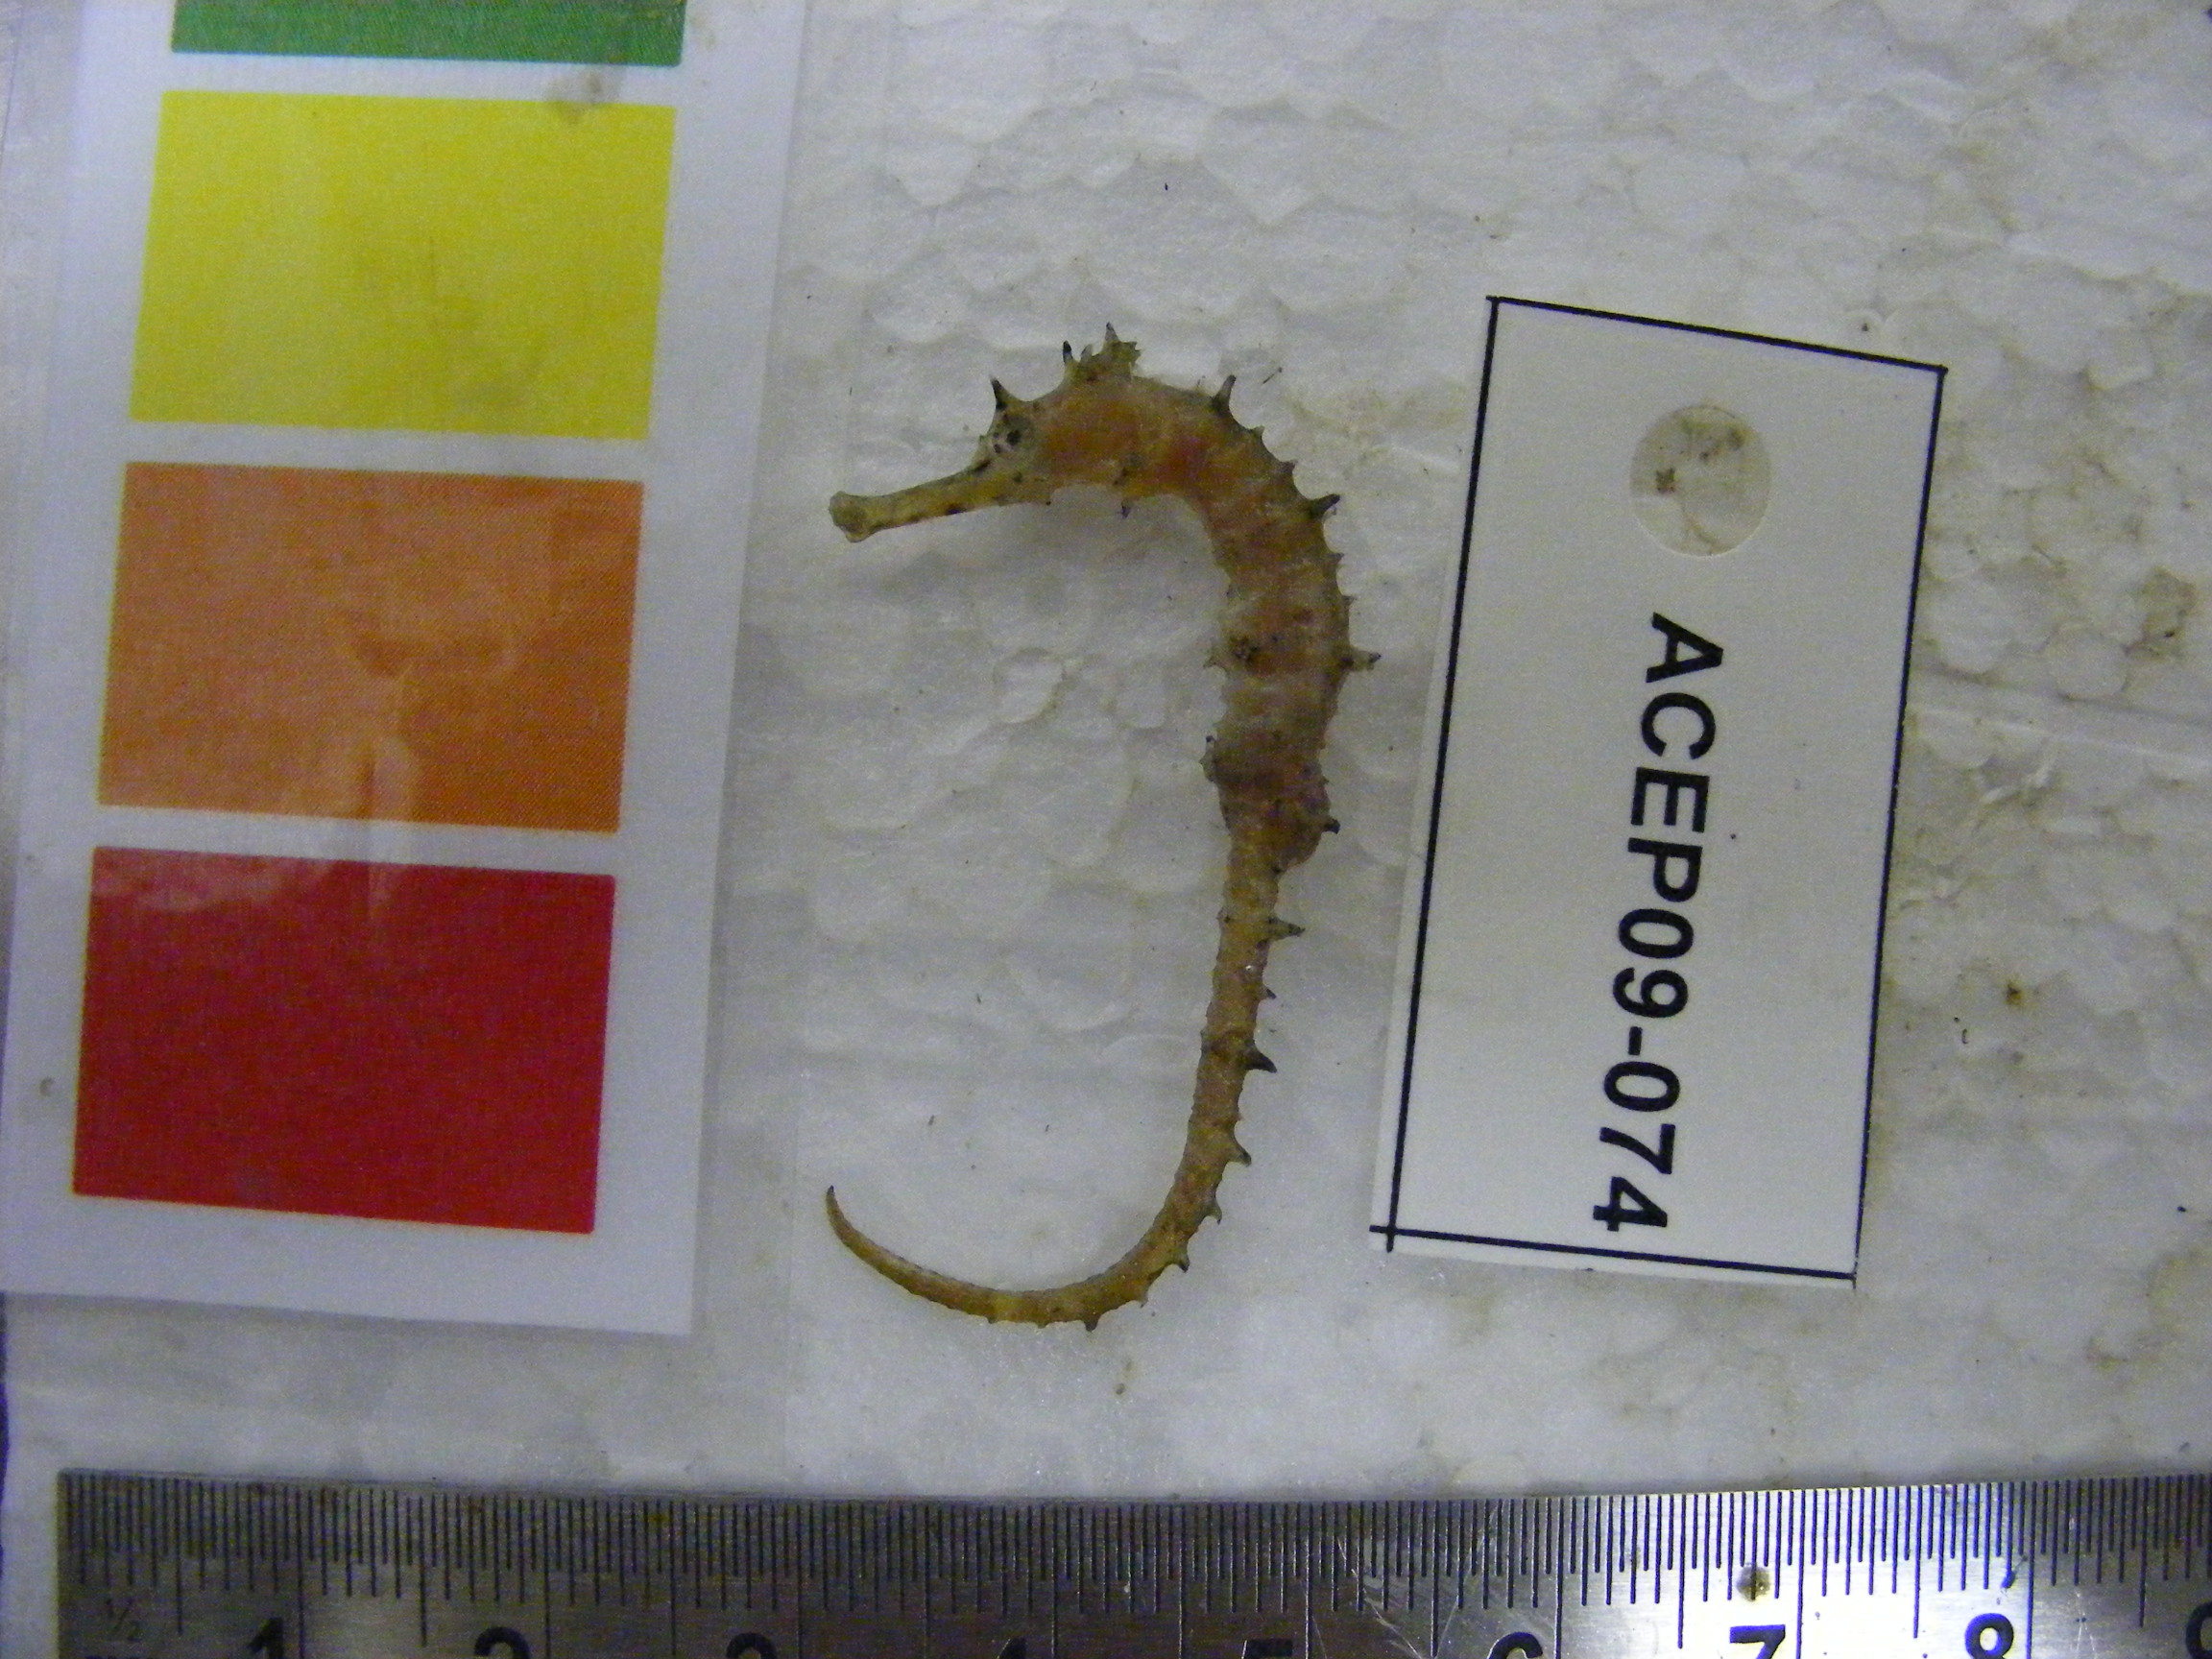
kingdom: Animalia
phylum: Chordata
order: Syngnathiformes
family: Syngnathidae
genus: Hippocampus
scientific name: Hippocampus histrix
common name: Longspine seahorse
